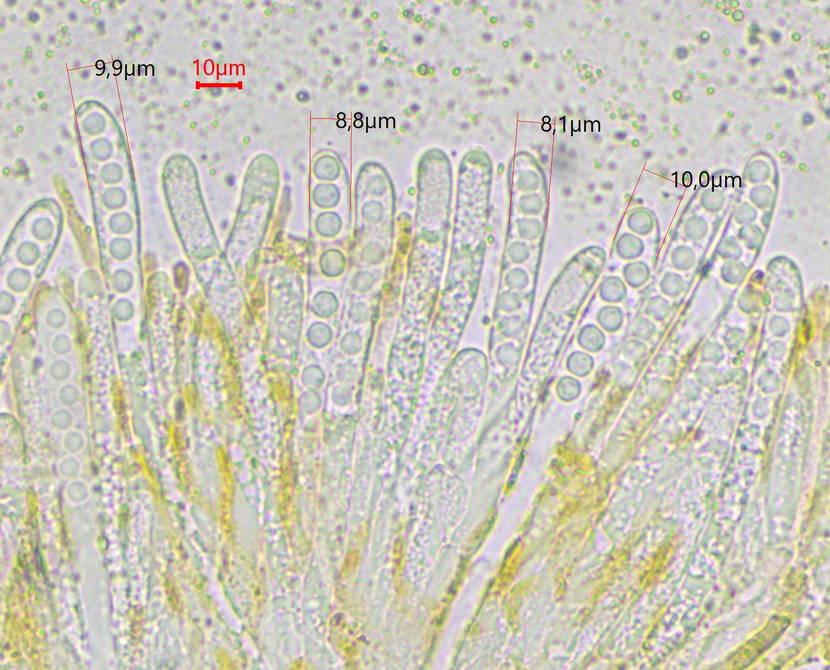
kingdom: Fungi
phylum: Ascomycota
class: Pezizomycetes
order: Pezizales
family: Caloscyphaceae
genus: Caloscypha
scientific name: Caloscypha fulgens
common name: jadebæger
